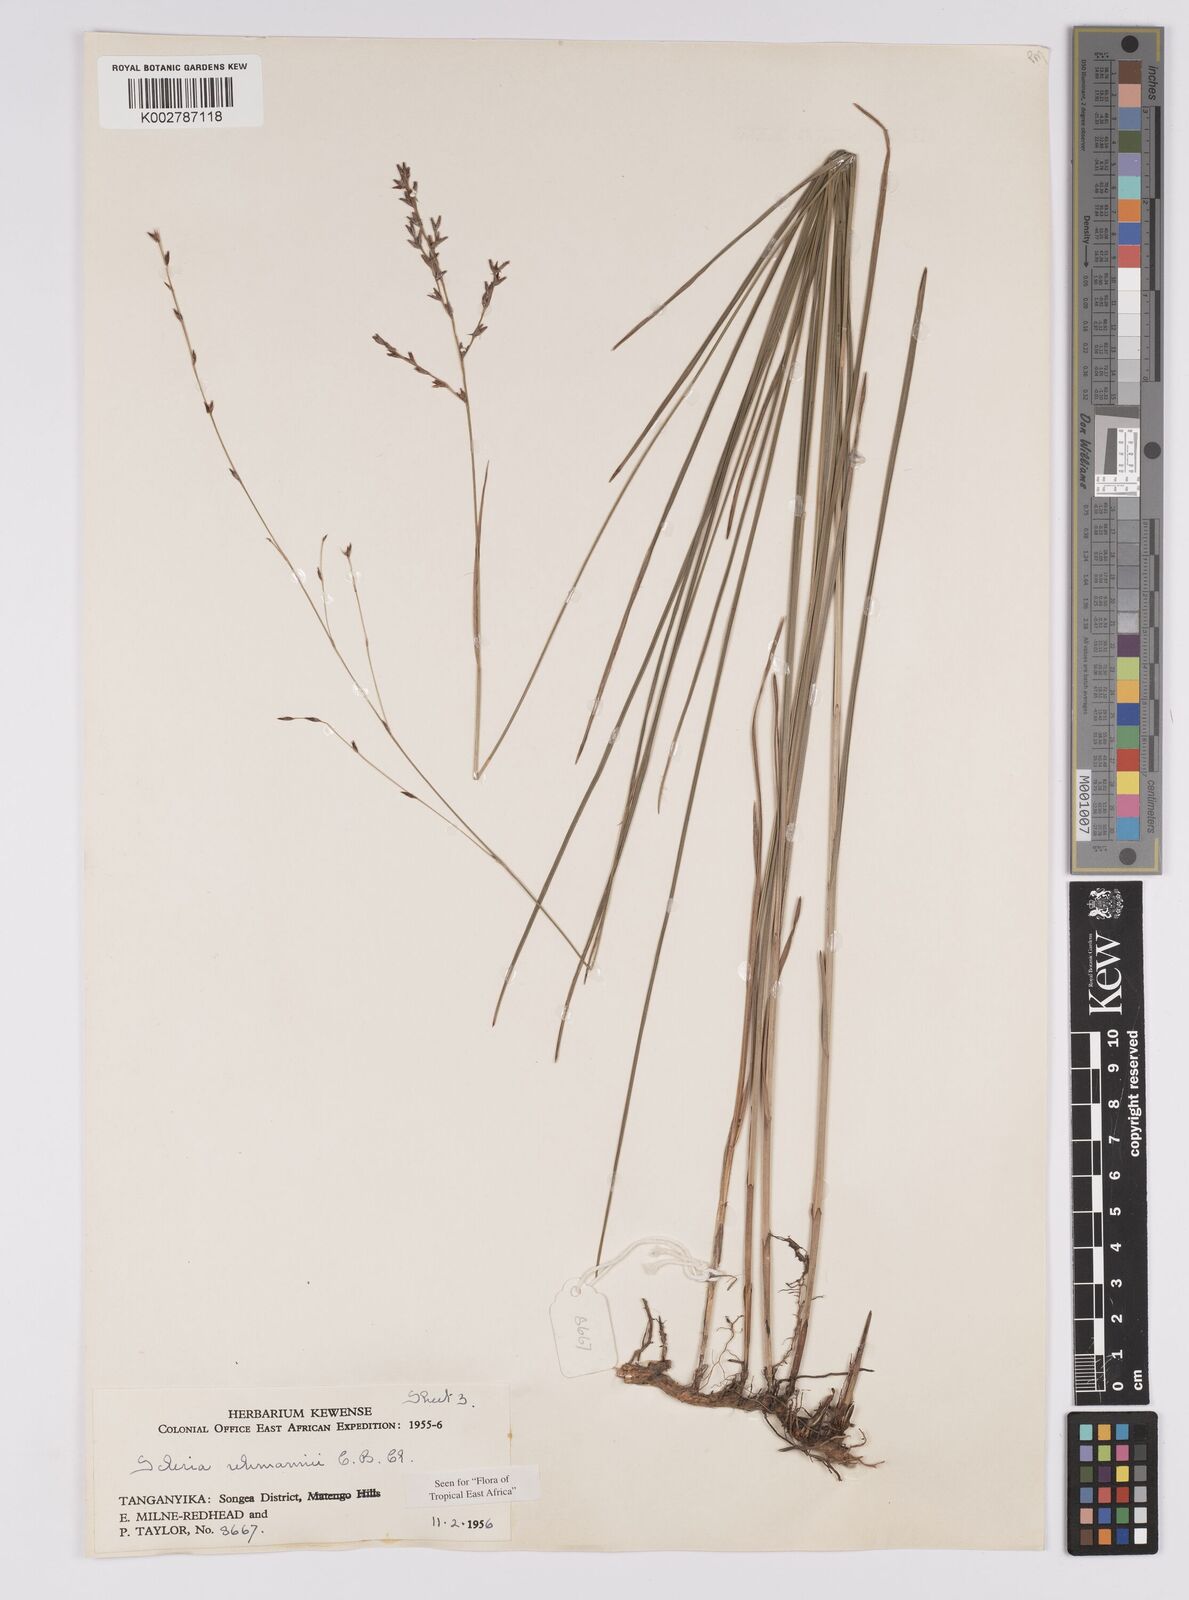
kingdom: Plantae
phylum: Tracheophyta
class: Liliopsida
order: Poales
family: Cyperaceae
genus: Scleria
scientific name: Scleria rehmannii
